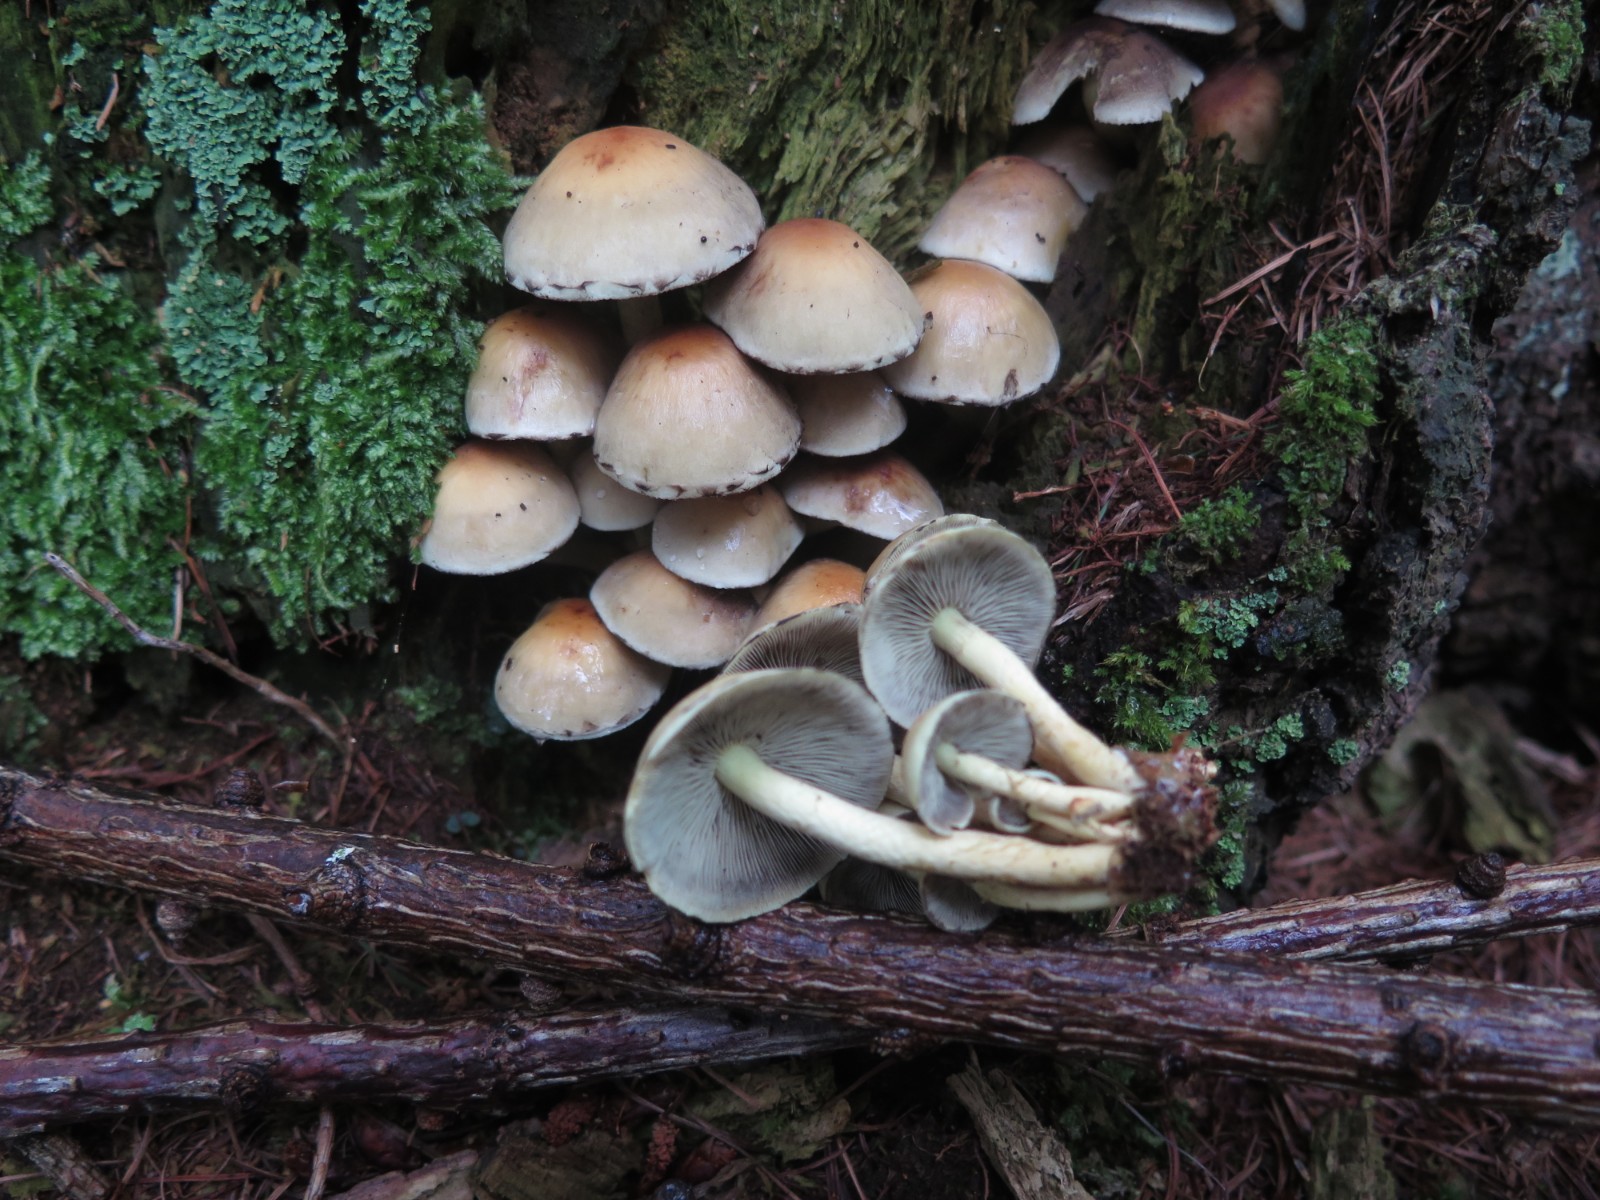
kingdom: Fungi
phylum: Basidiomycota
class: Agaricomycetes
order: Agaricales
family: Strophariaceae
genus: Hypholoma
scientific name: Hypholoma fasciculare
